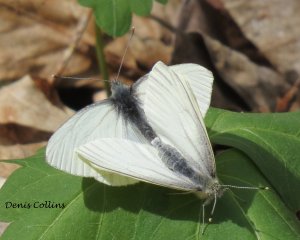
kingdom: Animalia
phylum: Arthropoda
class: Insecta
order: Lepidoptera
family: Pieridae
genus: Pieris
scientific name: Pieris oleracea
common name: Mustard White
